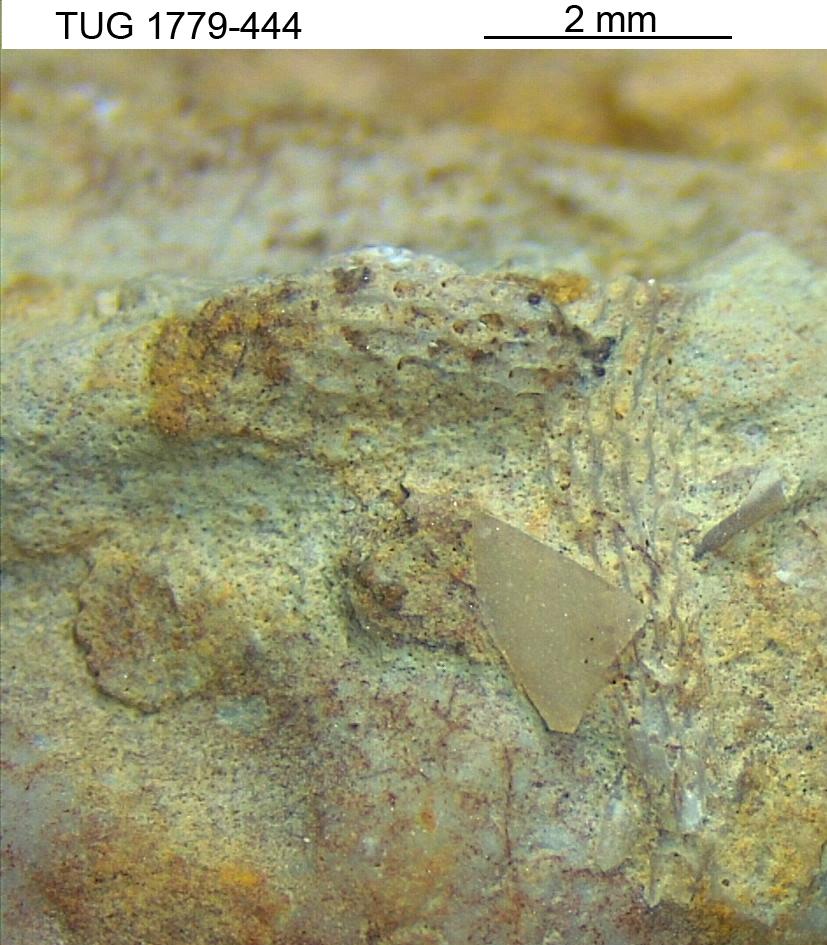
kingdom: Animalia
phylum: Bryozoa
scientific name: Bryozoa
